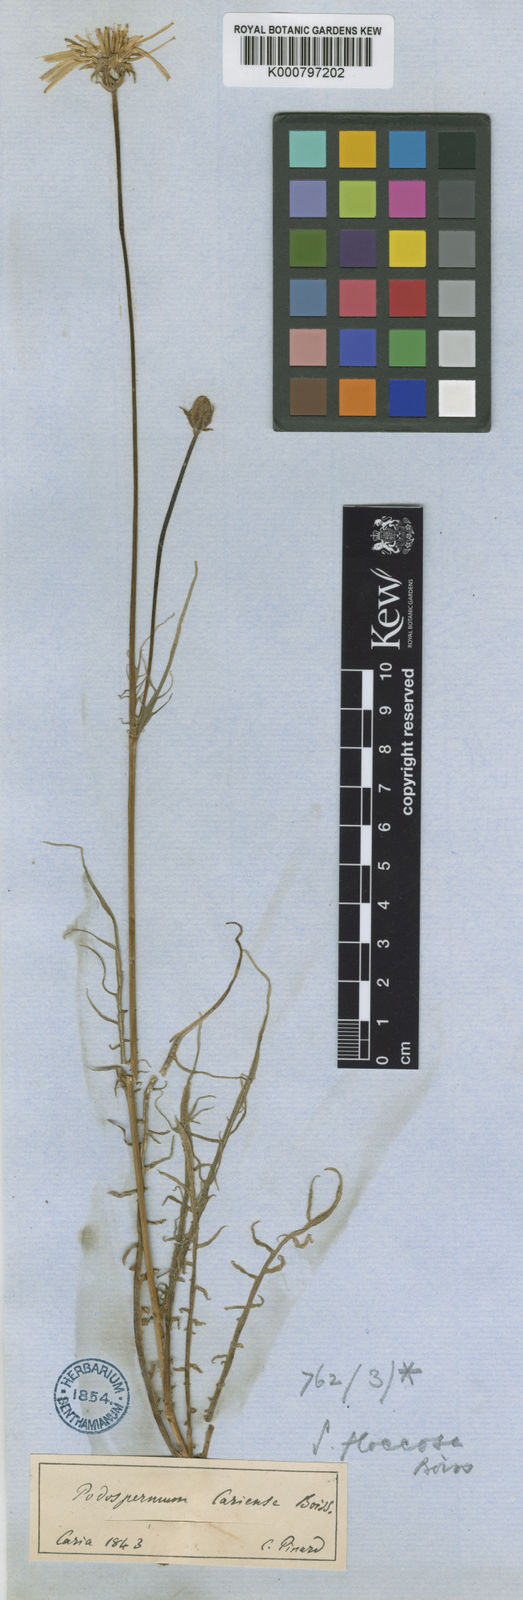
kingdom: Plantae
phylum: Tracheophyta
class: Magnoliopsida
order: Asterales
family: Asteraceae
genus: Scorzonera
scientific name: Scorzonera cana
